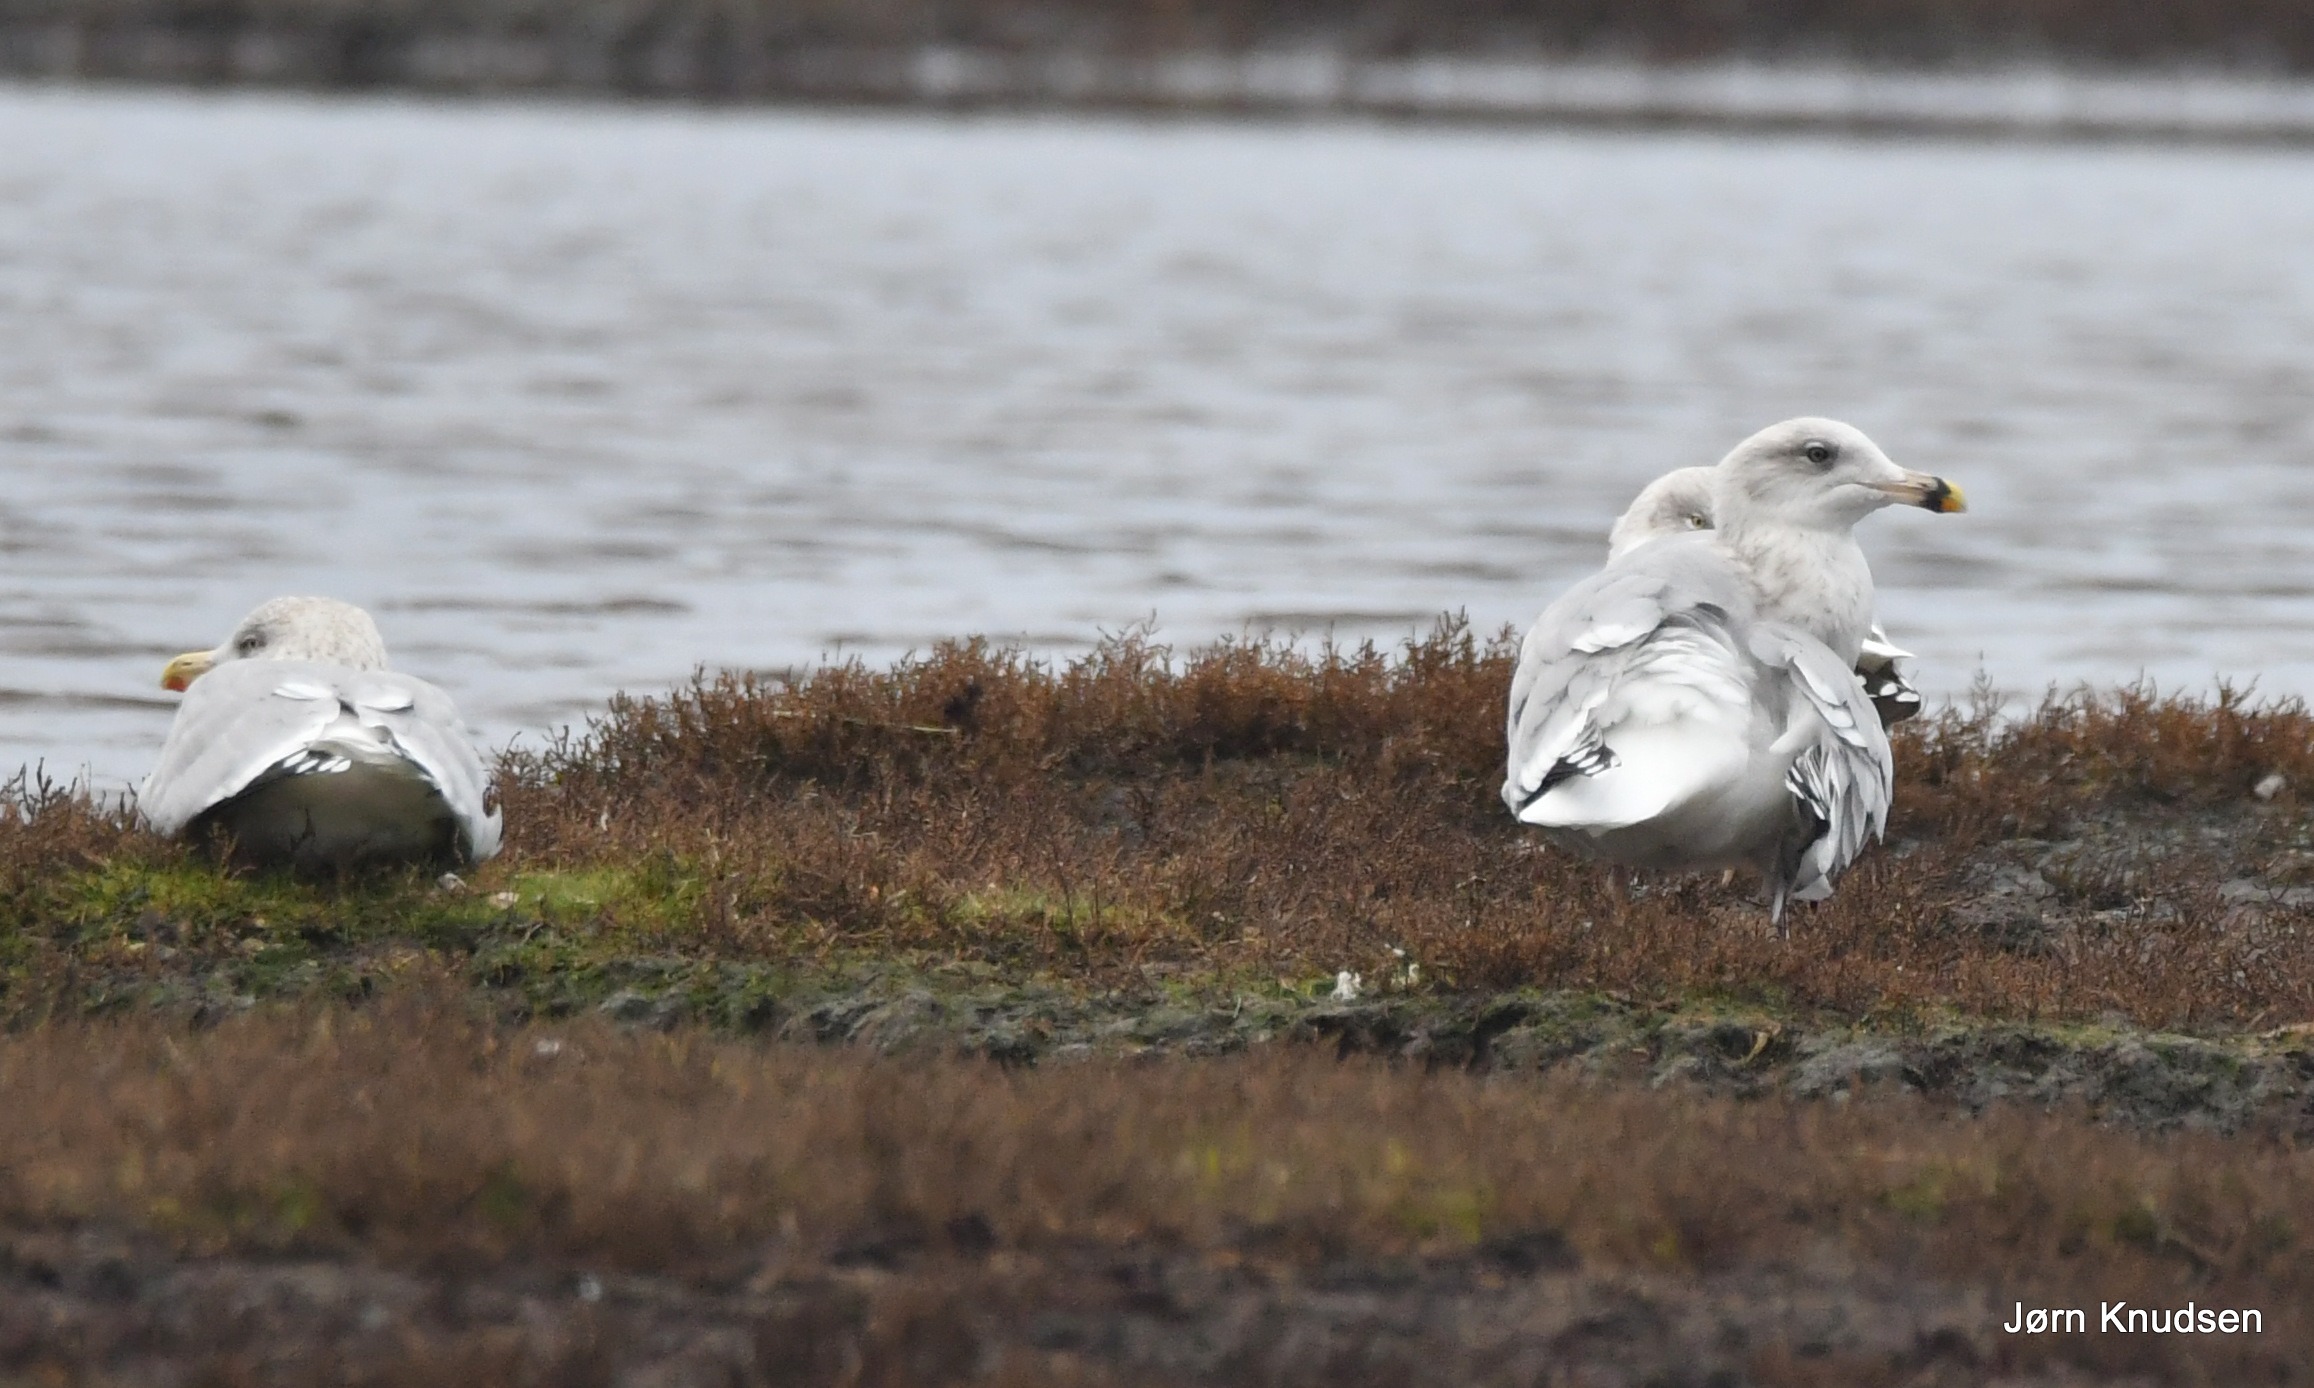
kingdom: Animalia
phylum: Chordata
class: Aves
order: Charadriiformes
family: Laridae
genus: Larus
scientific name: Larus argentatus
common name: Sølvmåge
